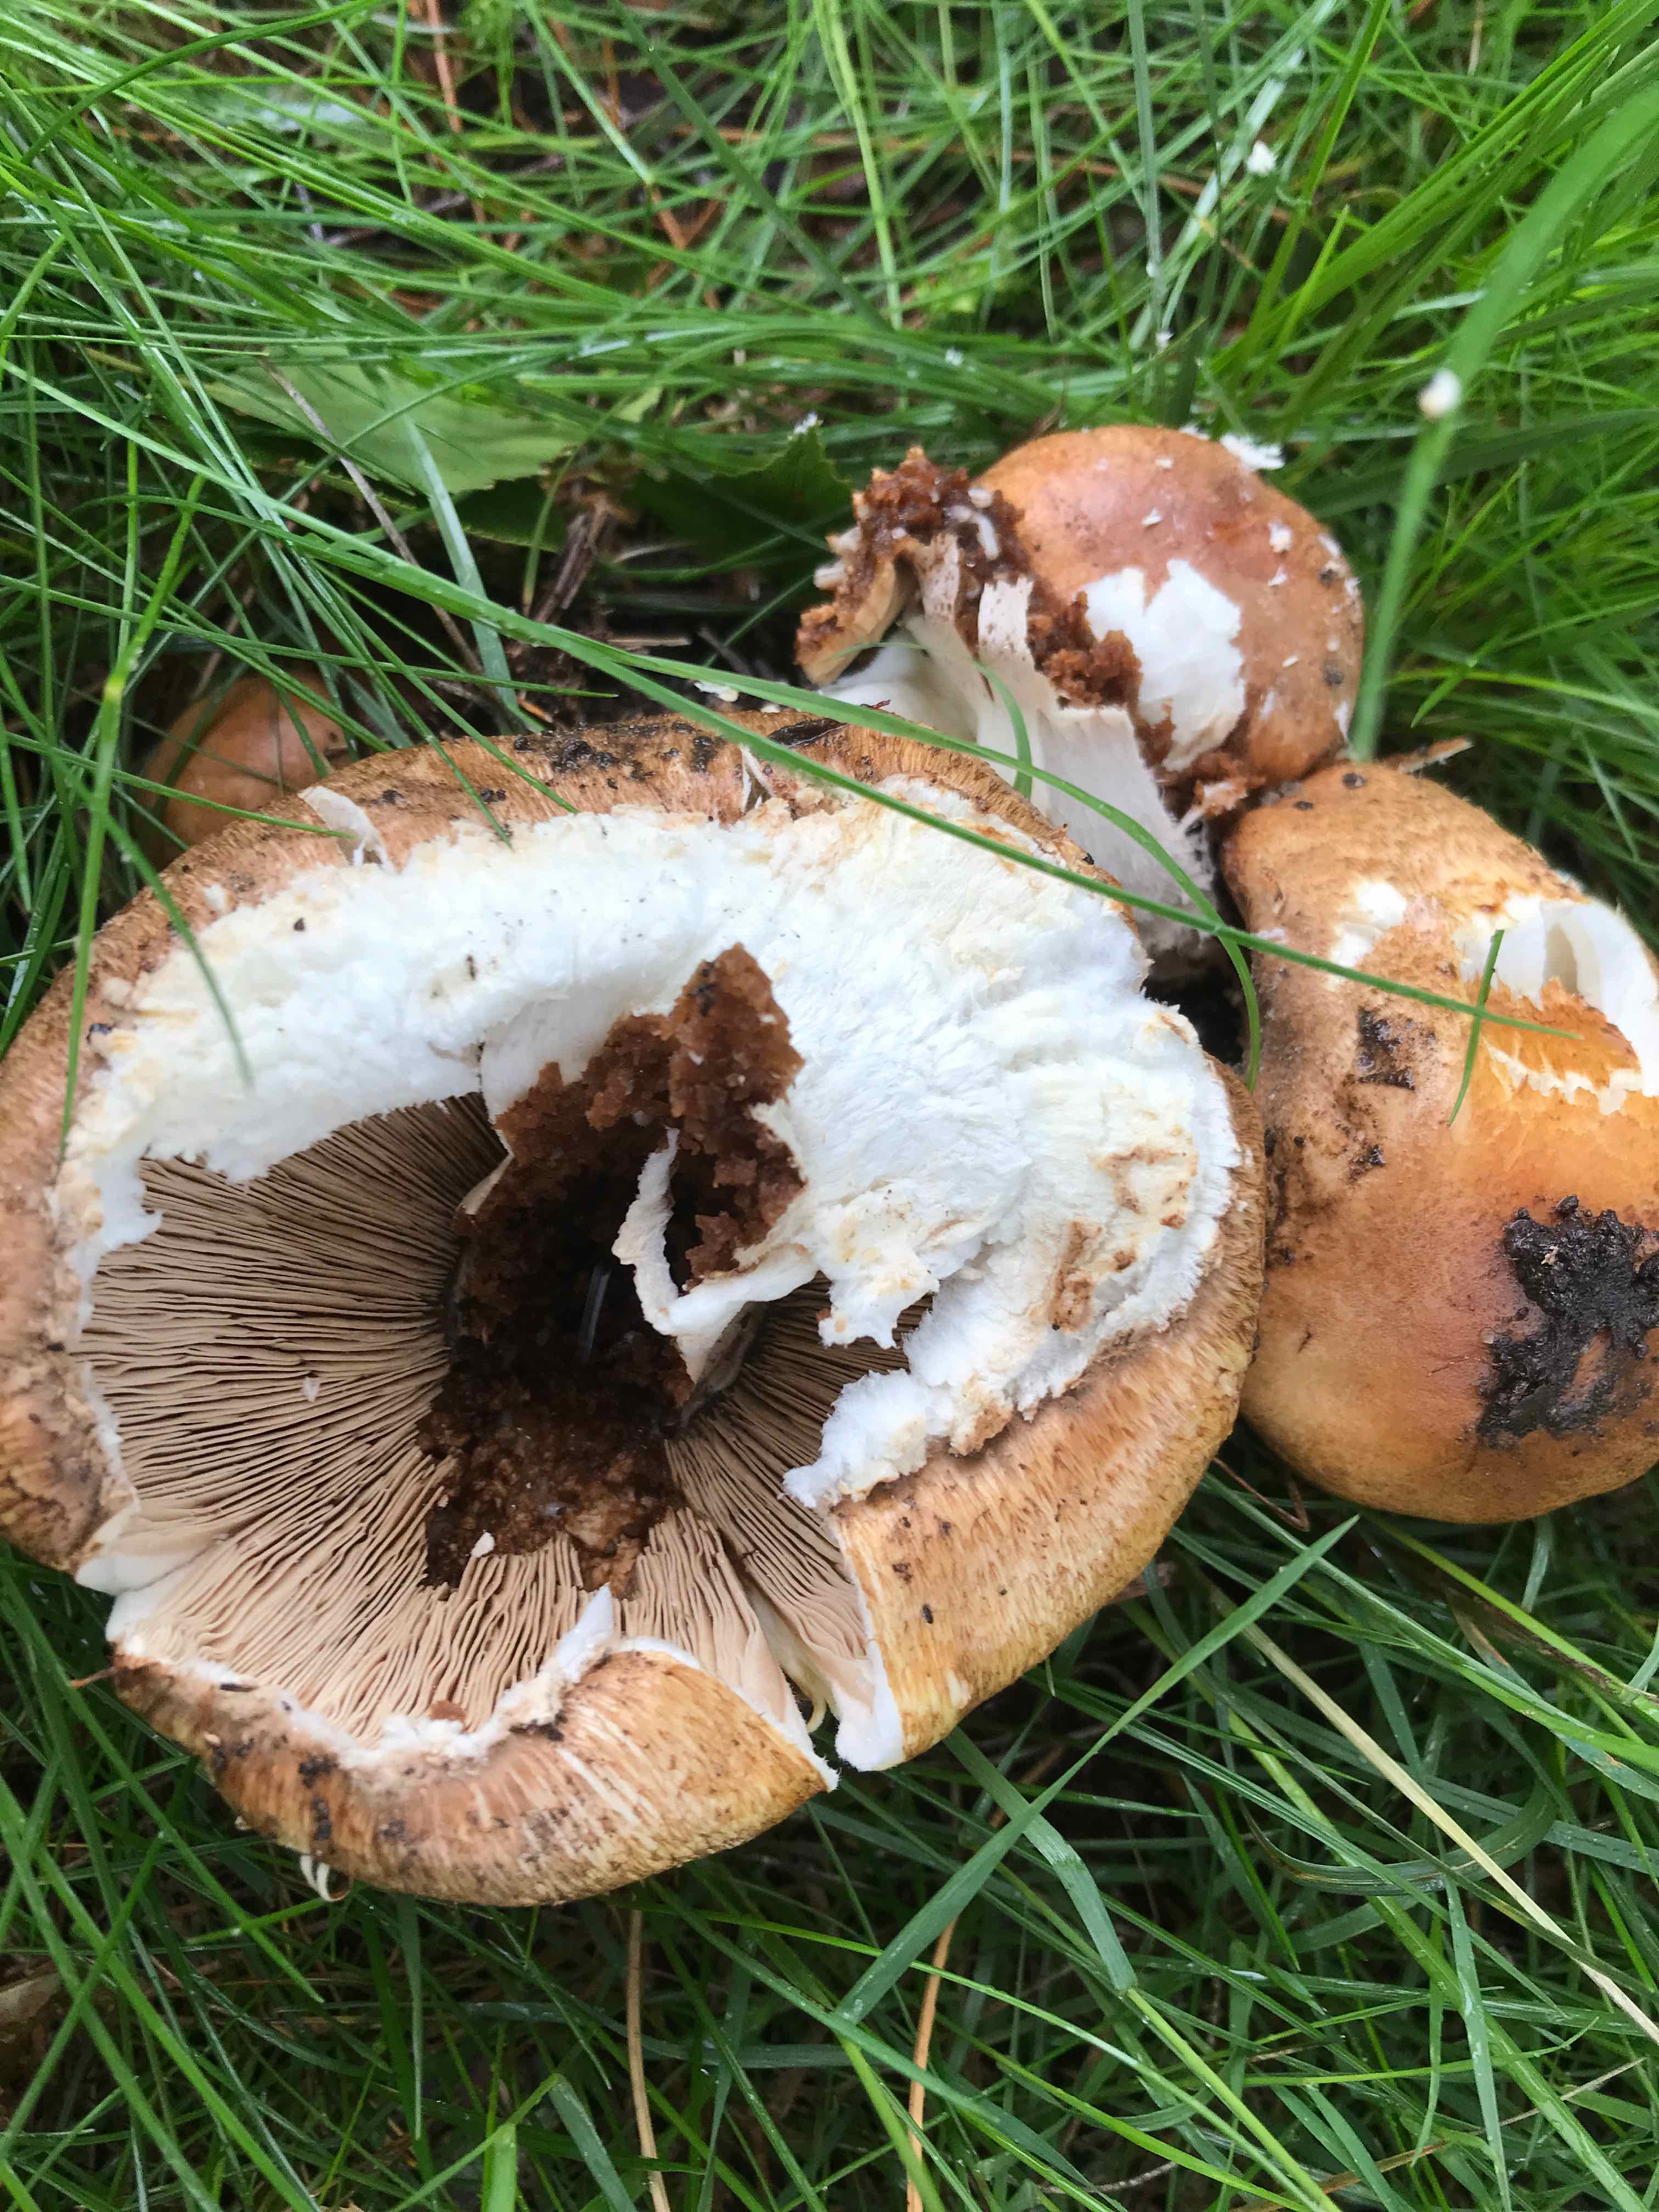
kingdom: Fungi
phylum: Basidiomycota
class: Agaricomycetes
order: Agaricales
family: Agaricaceae
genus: Agaricus
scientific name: Agaricus augustus
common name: prægtig champignon
